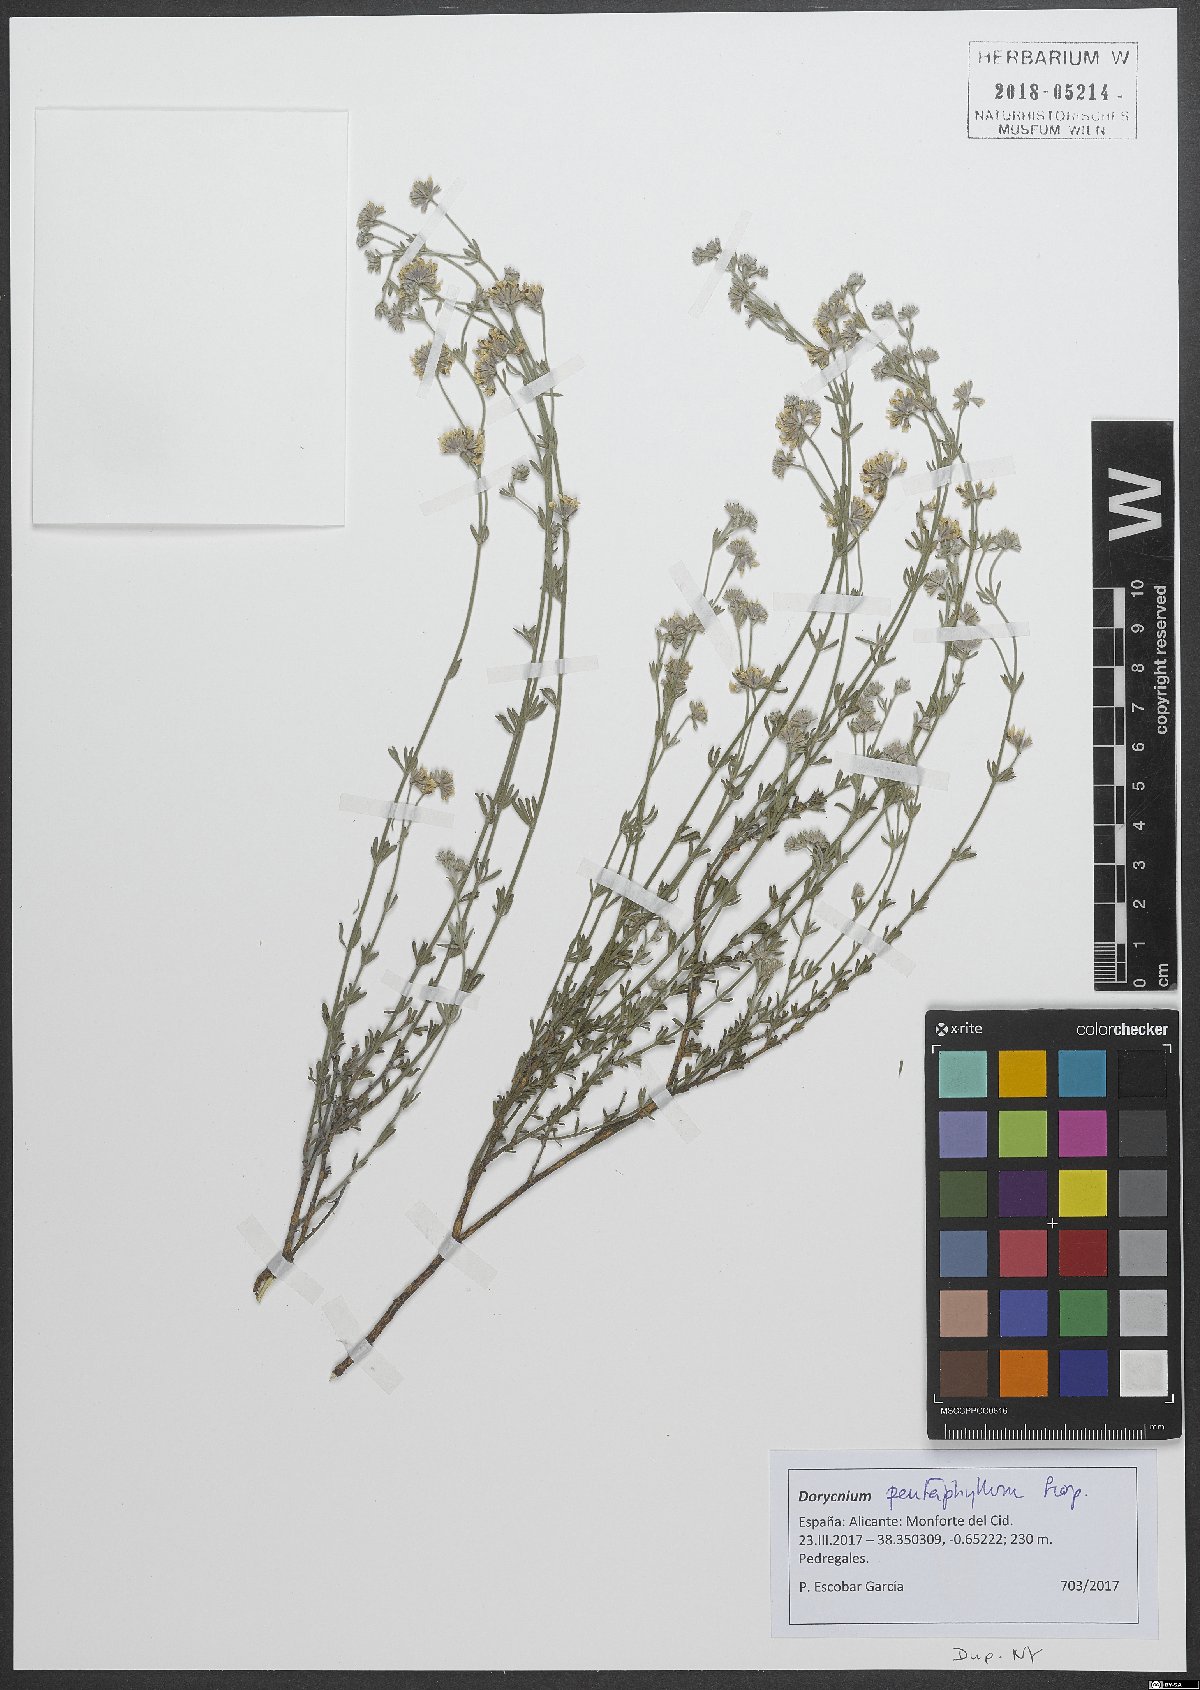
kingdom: Plantae
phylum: Tracheophyta
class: Magnoliopsida
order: Fabales
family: Fabaceae
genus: Lotus
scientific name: Lotus dorycnium
